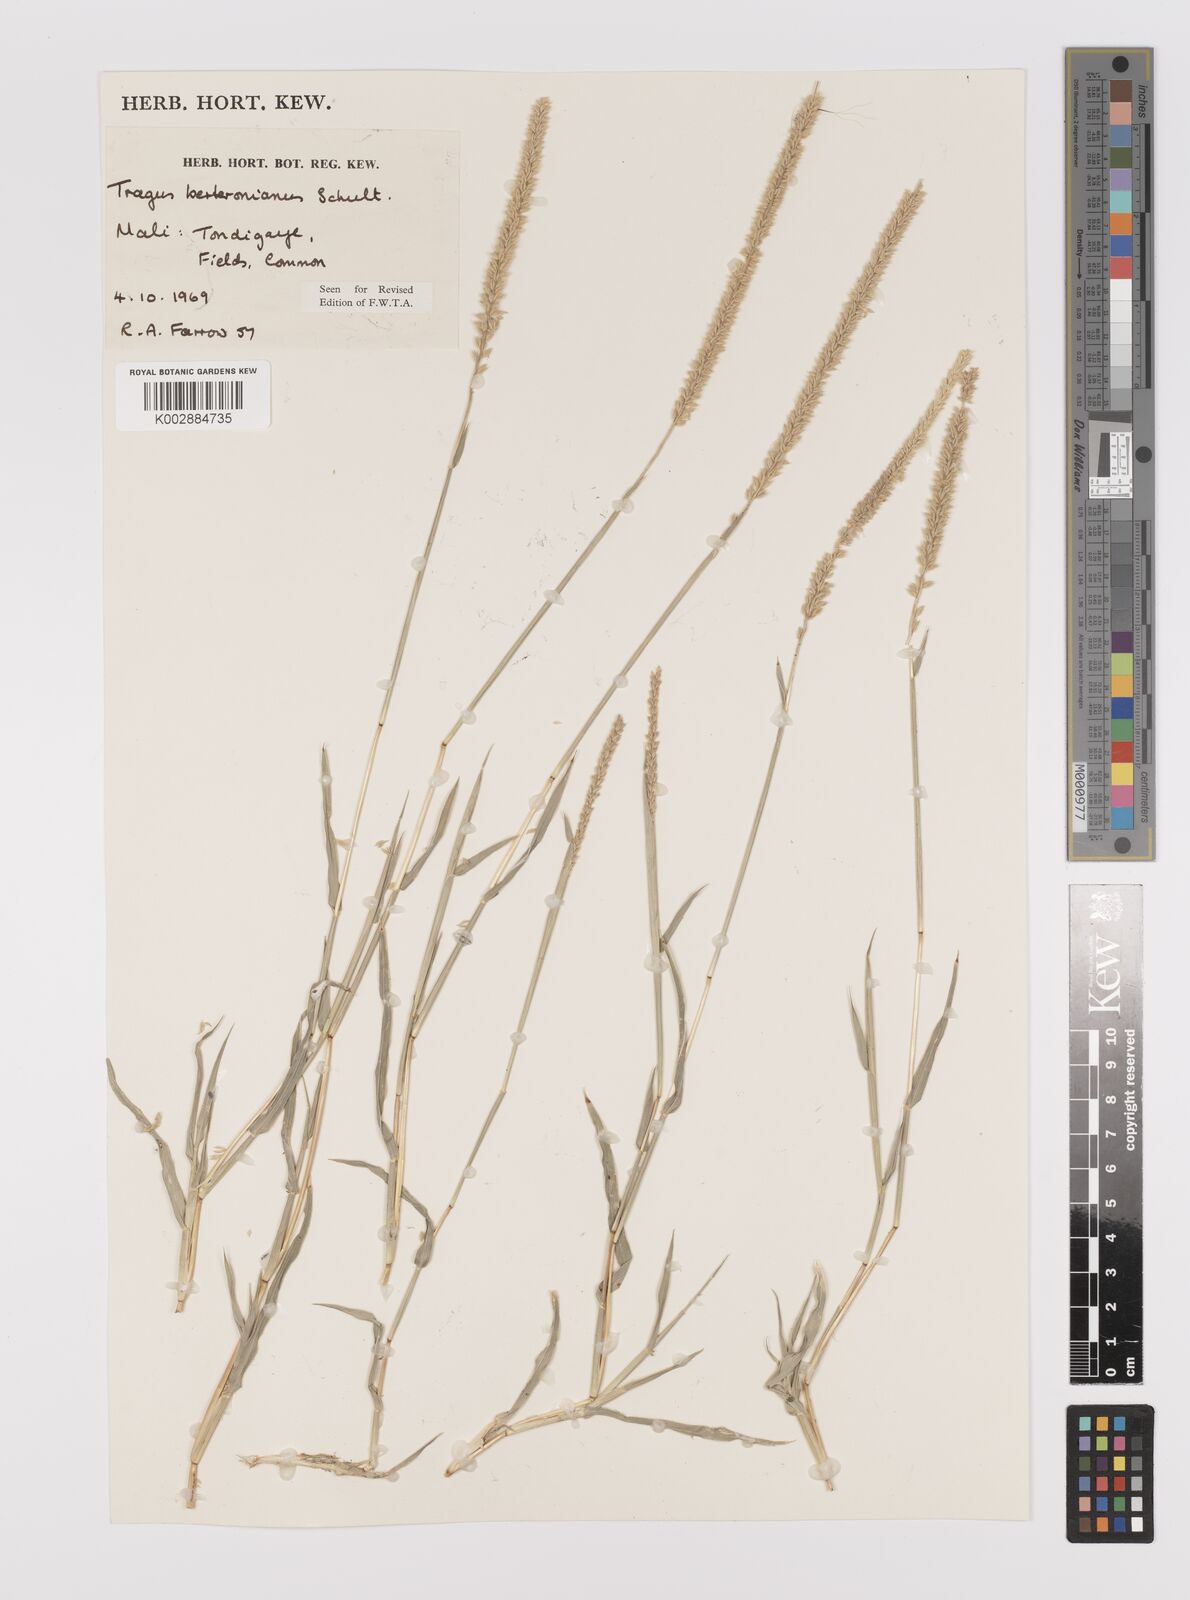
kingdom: Plantae
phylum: Tracheophyta
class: Liliopsida
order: Poales
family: Poaceae
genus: Tragus
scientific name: Tragus berteronianus
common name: African bur-grass
